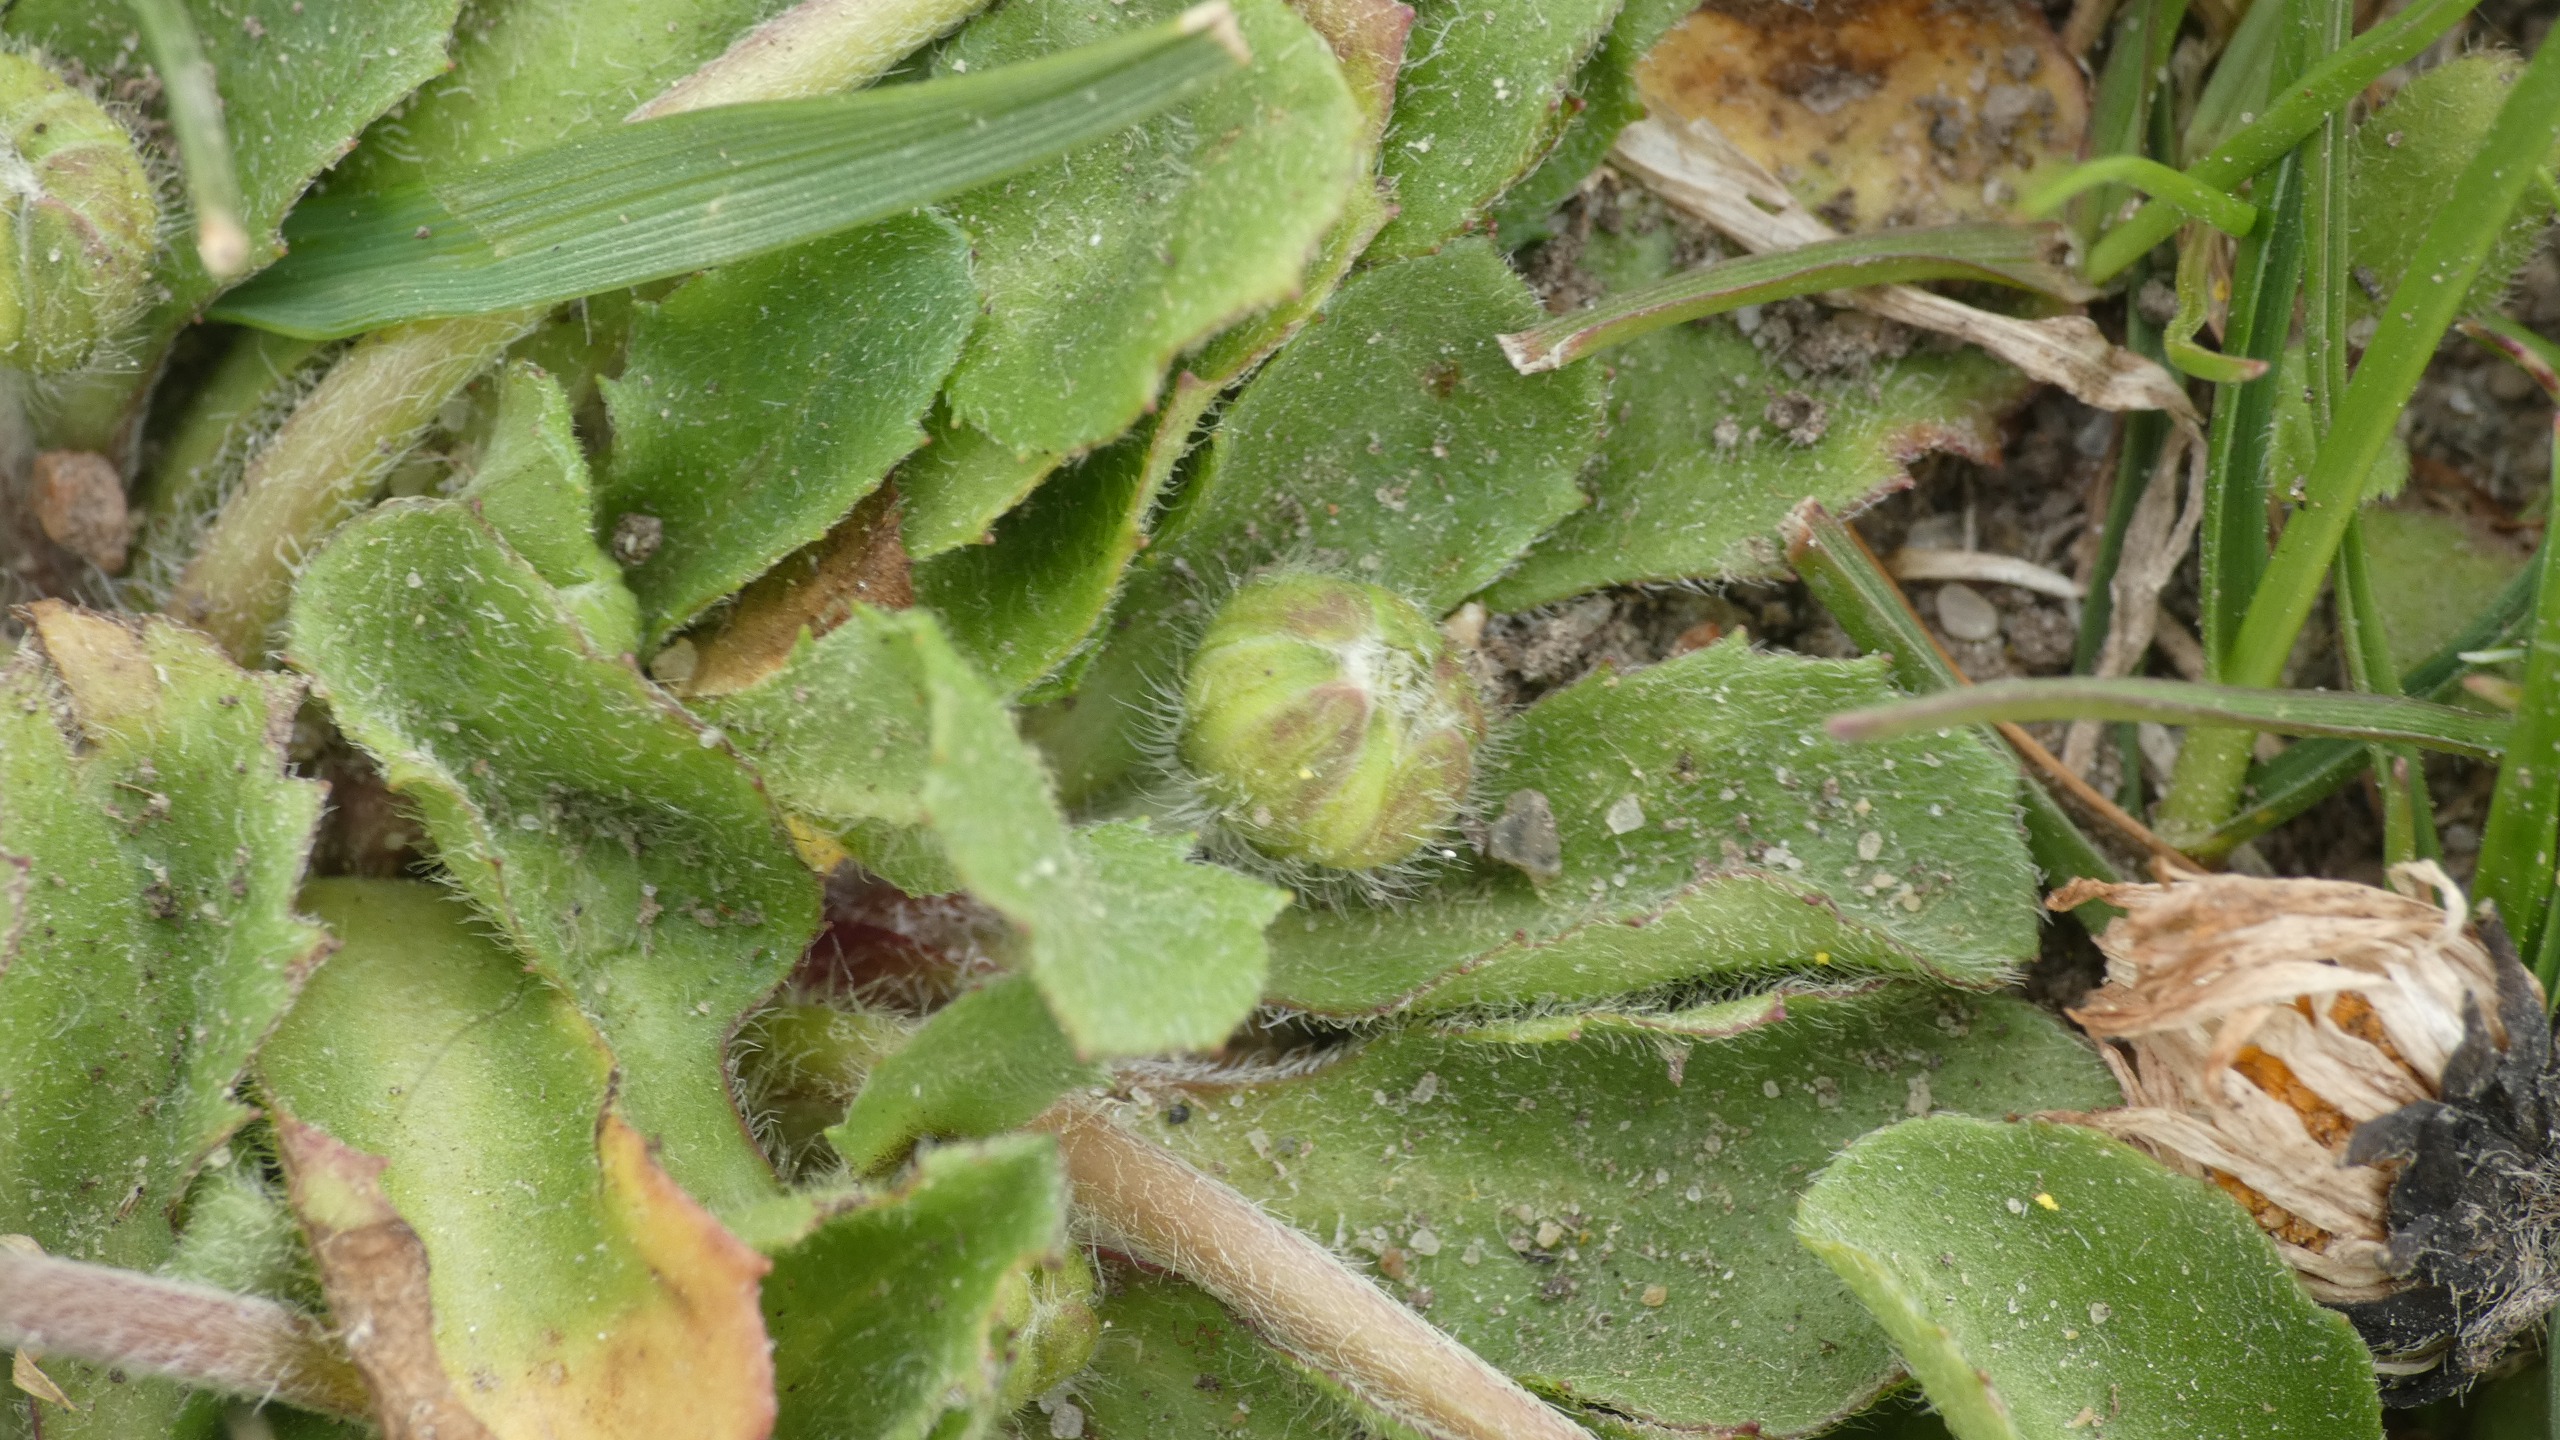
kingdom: Plantae
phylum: Tracheophyta
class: Magnoliopsida
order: Asterales
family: Asteraceae
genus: Bellis
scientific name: Bellis perennis
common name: Tusindfryd
